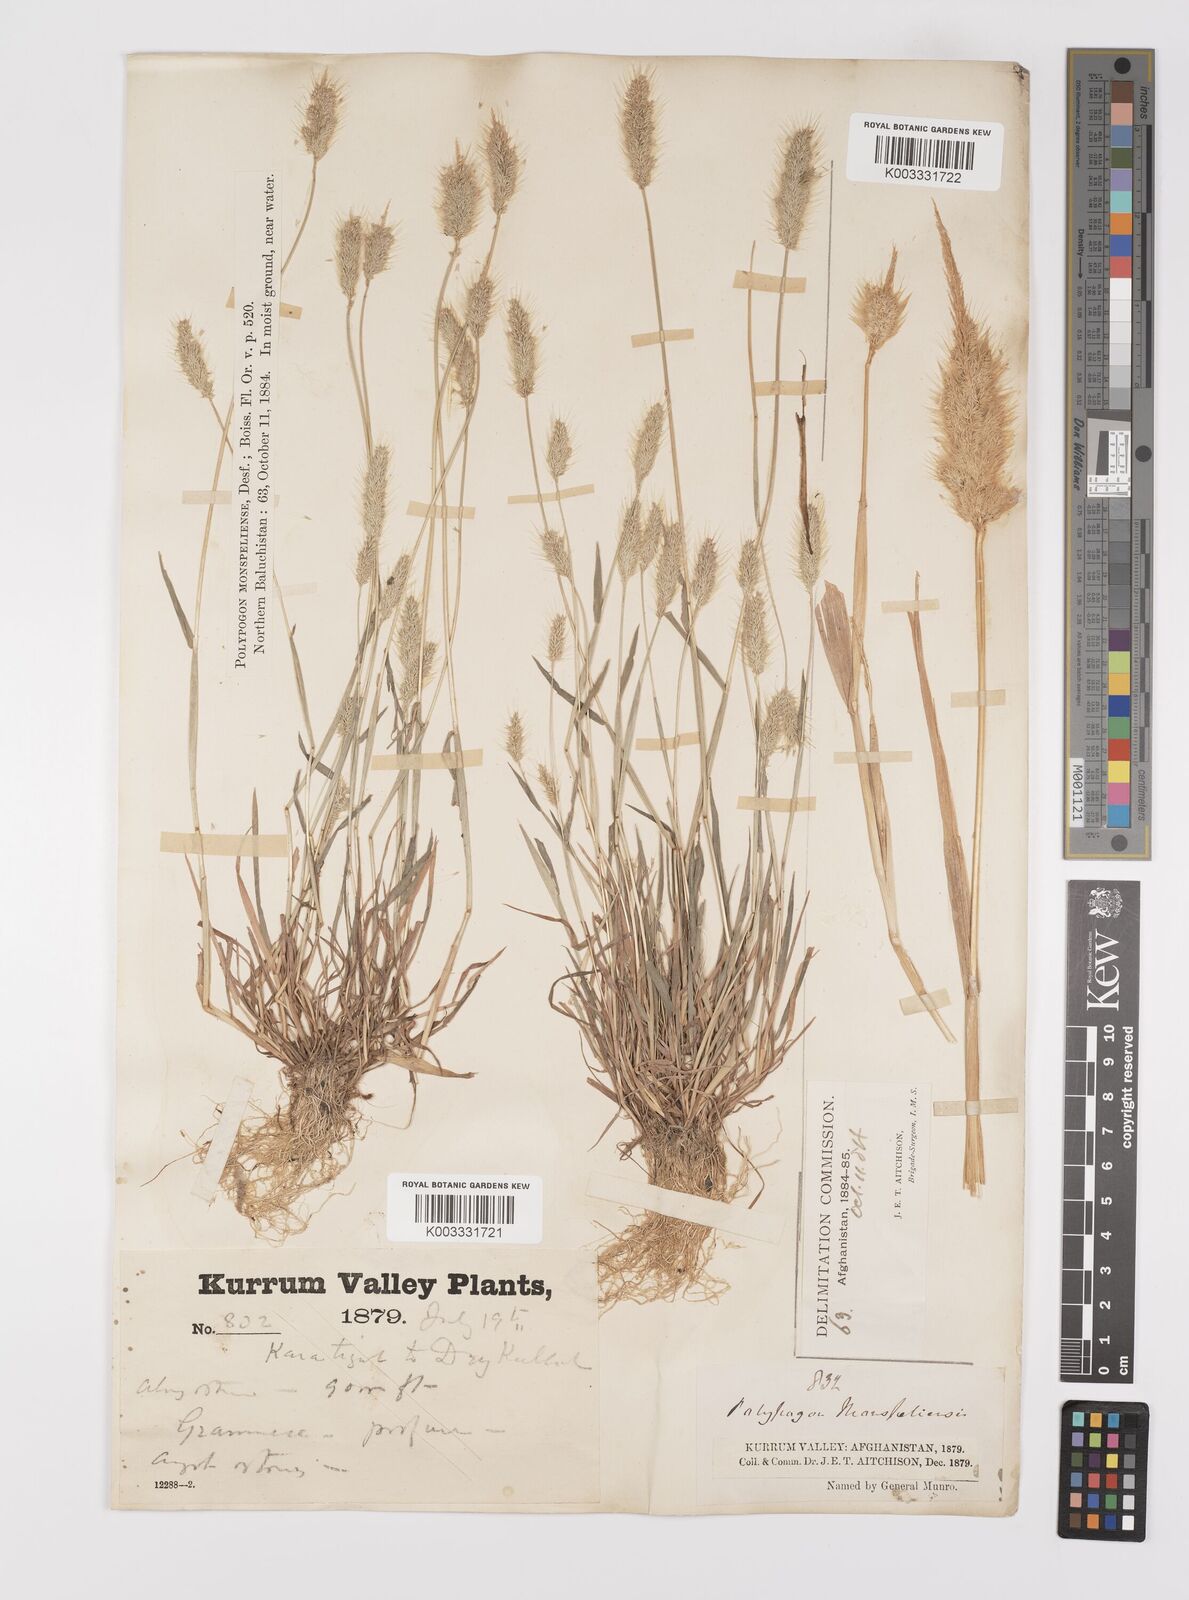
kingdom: Plantae
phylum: Tracheophyta
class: Liliopsida
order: Poales
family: Poaceae
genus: Polypogon
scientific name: Polypogon monspeliensis
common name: Annual rabbitsfoot grass
